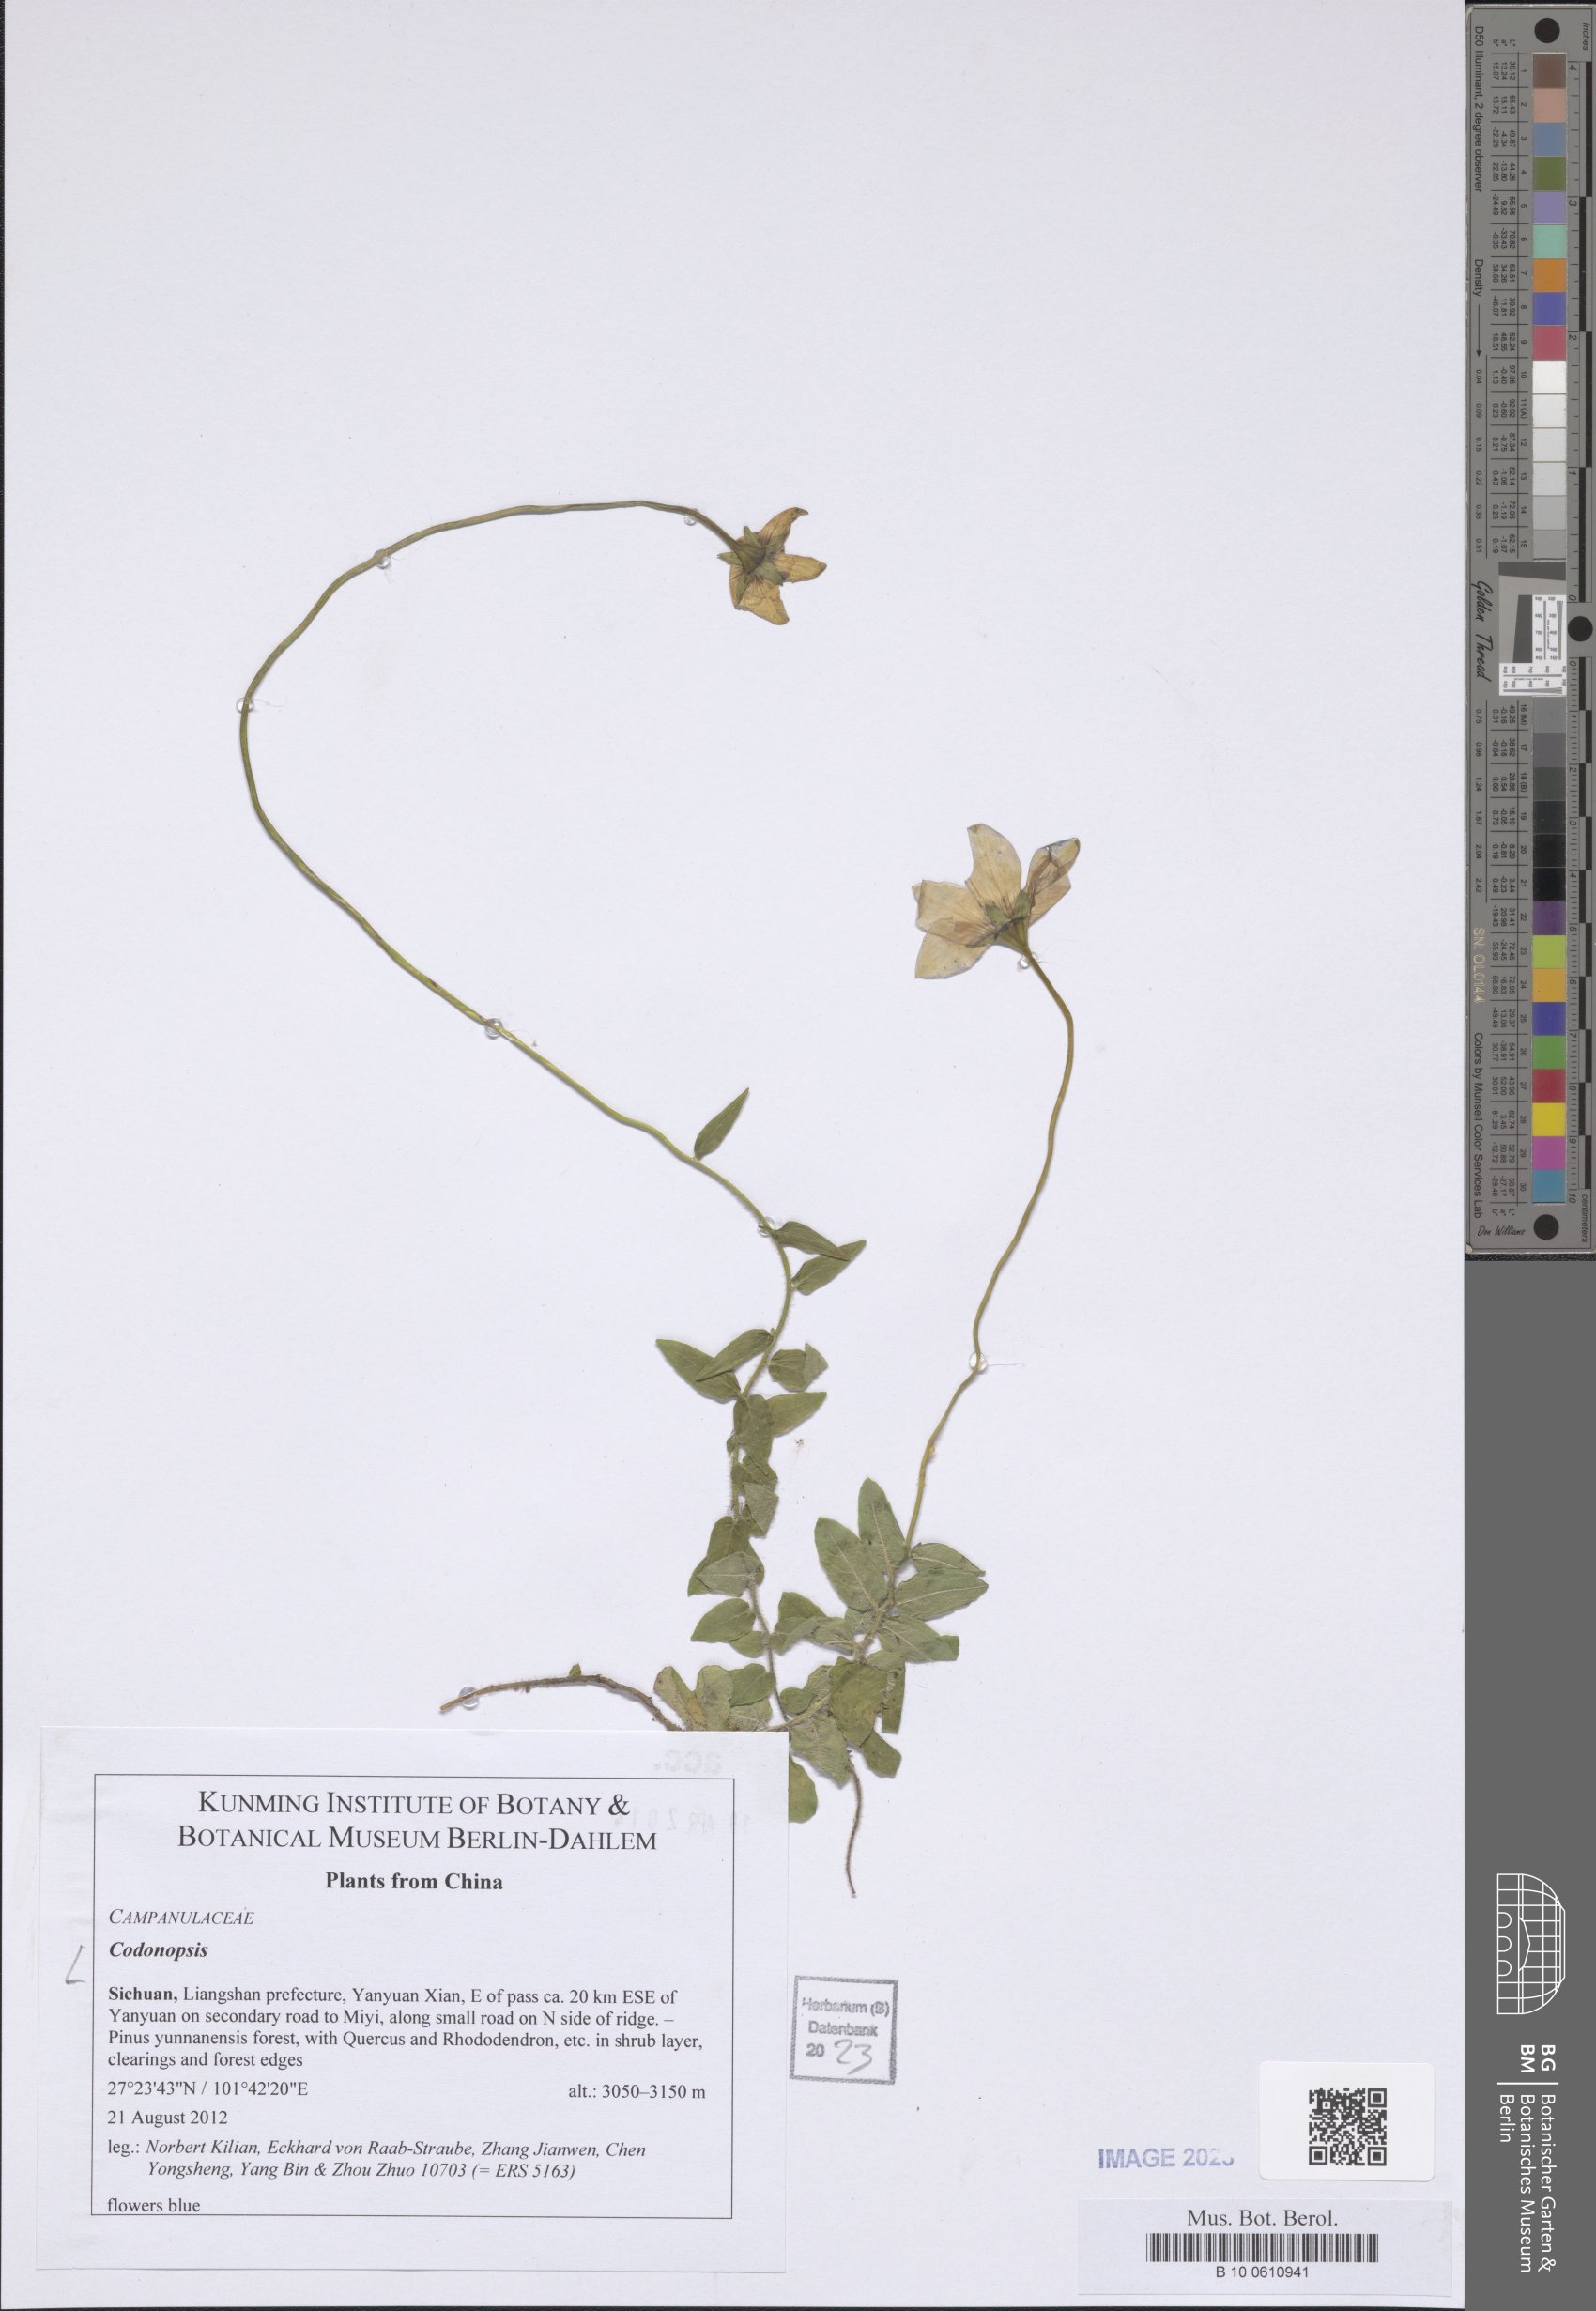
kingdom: Plantae
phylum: Tracheophyta
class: Magnoliopsida
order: Asterales
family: Campanulaceae
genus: Codonopsis
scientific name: Codonopsis
